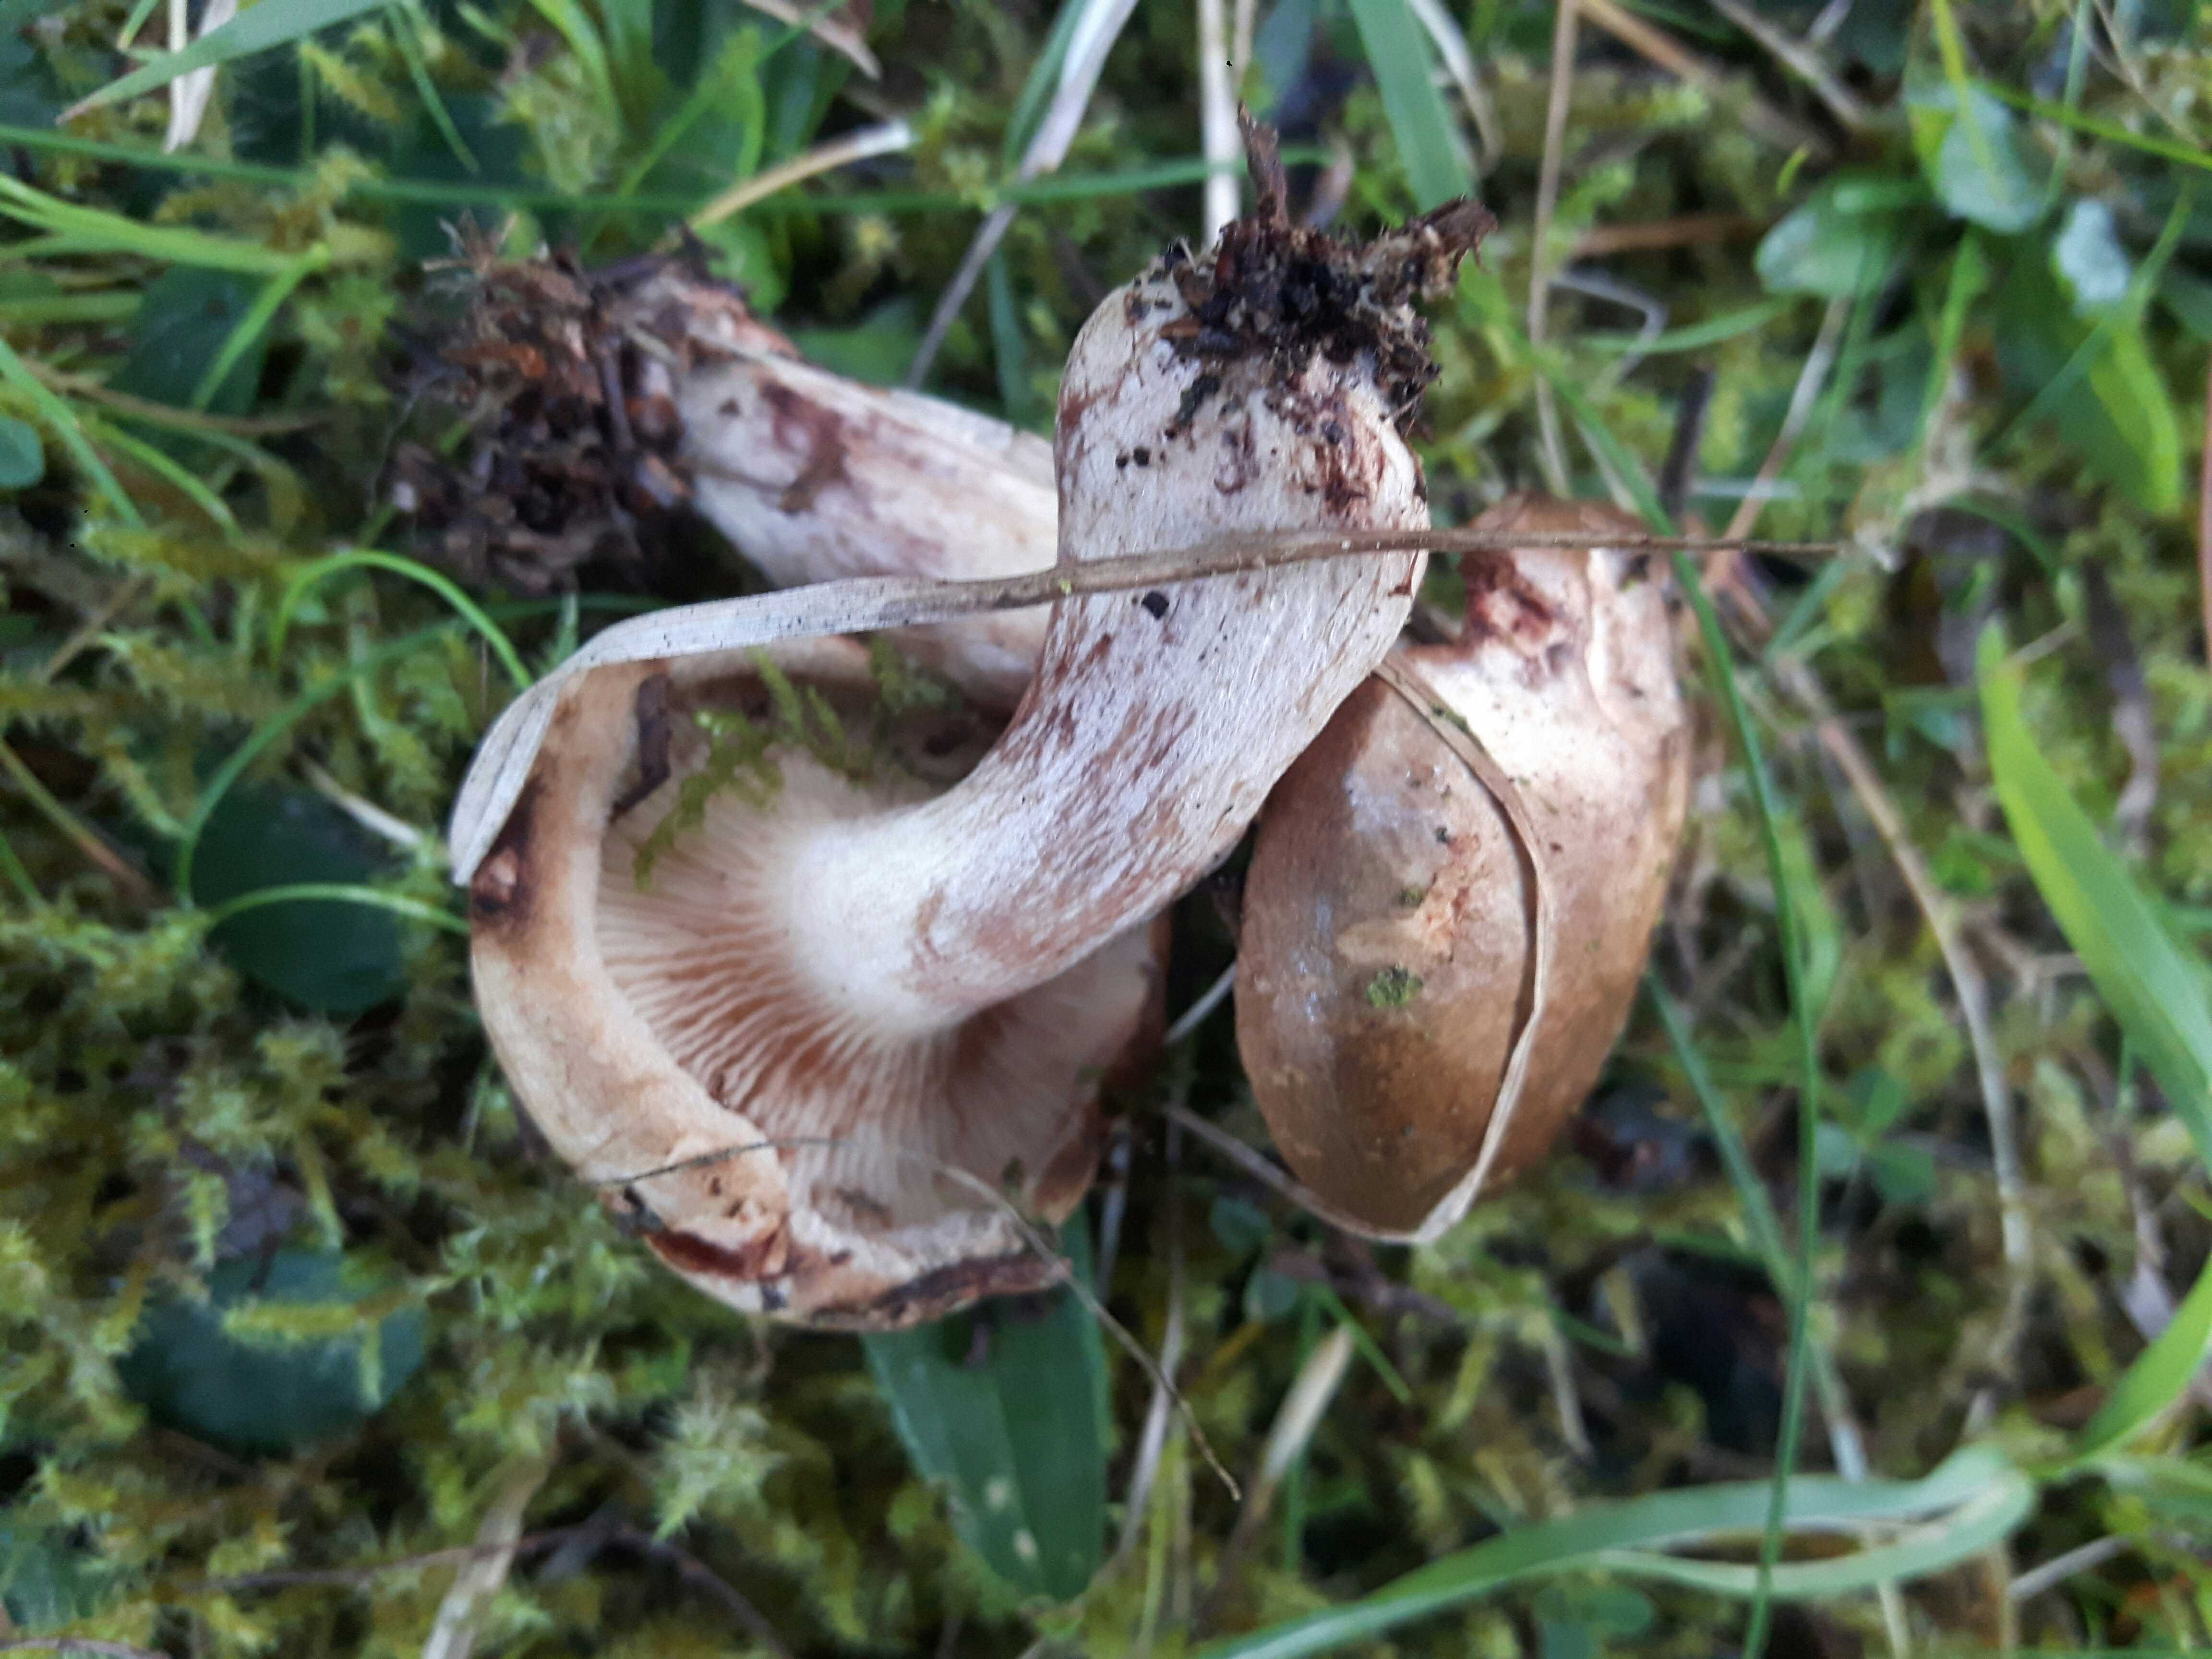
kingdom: Fungi
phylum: Basidiomycota
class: Agaricomycetes
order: Boletales
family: Paxillaceae
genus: Paxillus
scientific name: Paxillus involutus
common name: almindelig netbladhat
